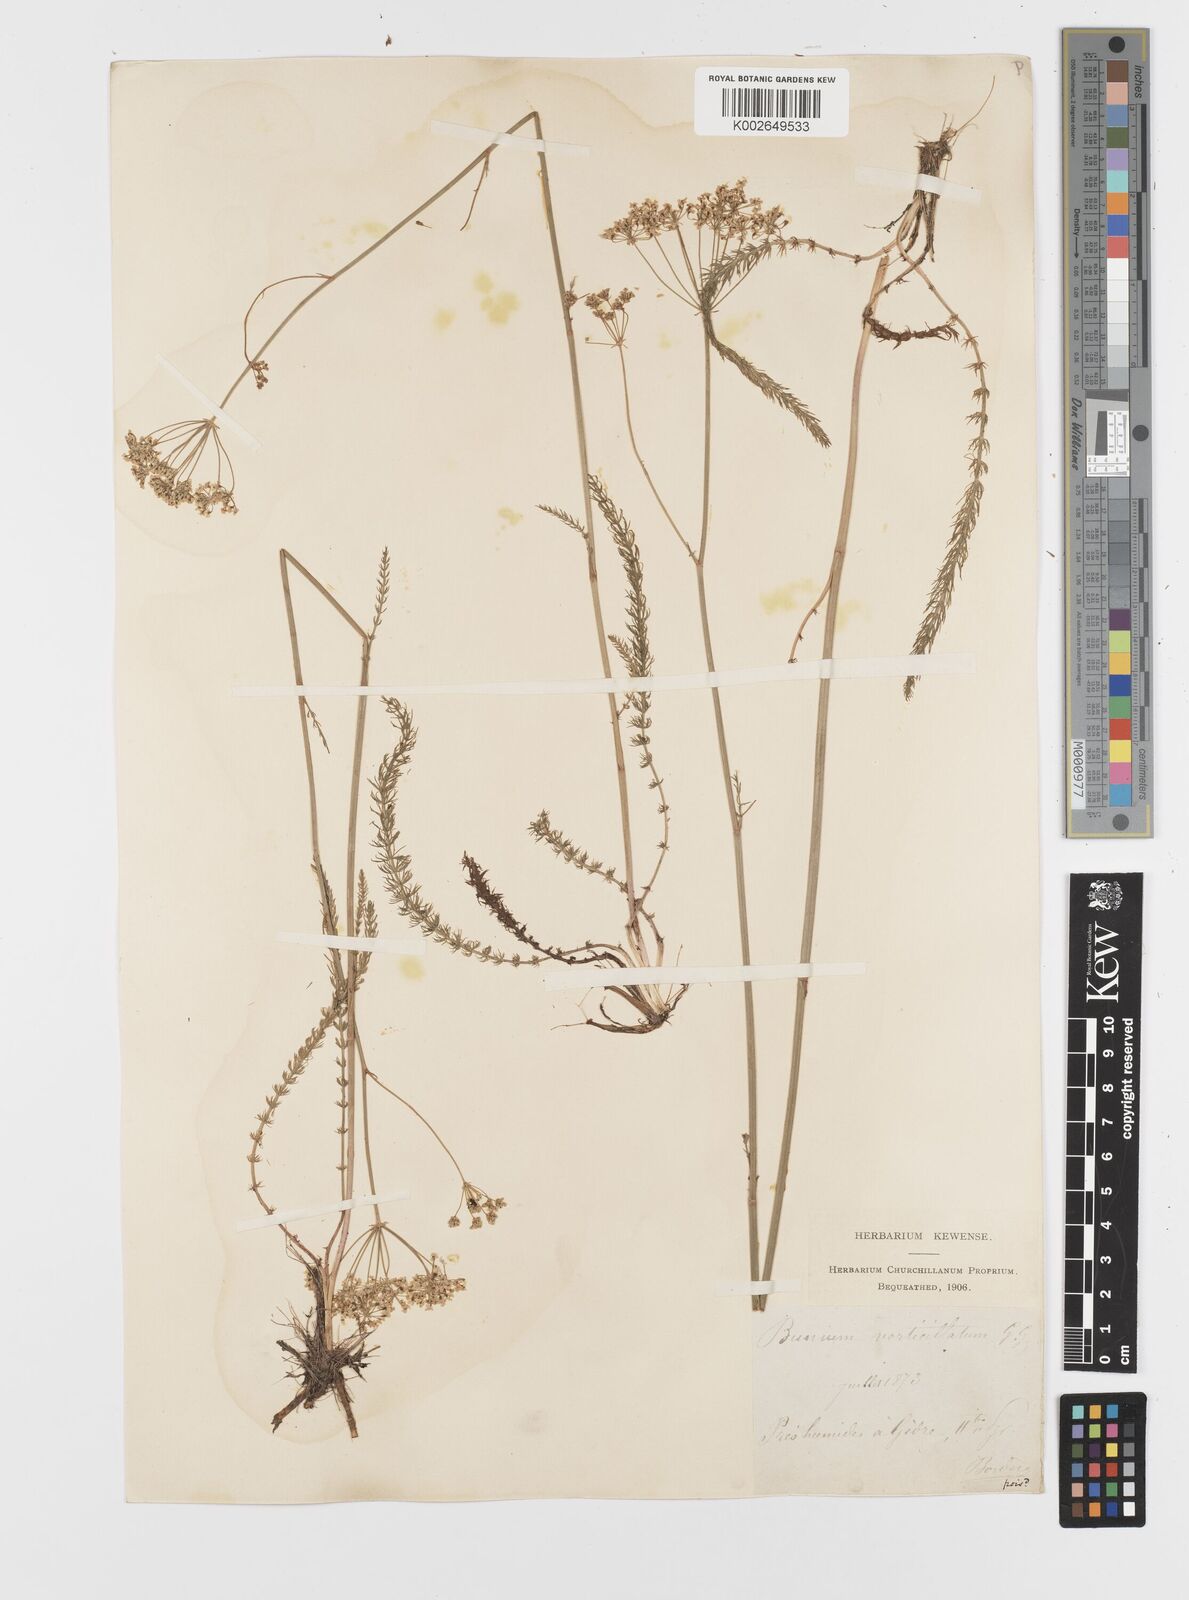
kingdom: Plantae
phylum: Tracheophyta
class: Magnoliopsida
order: Apiales
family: Apiaceae
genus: Trocdaris
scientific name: Trocdaris verticillatum
